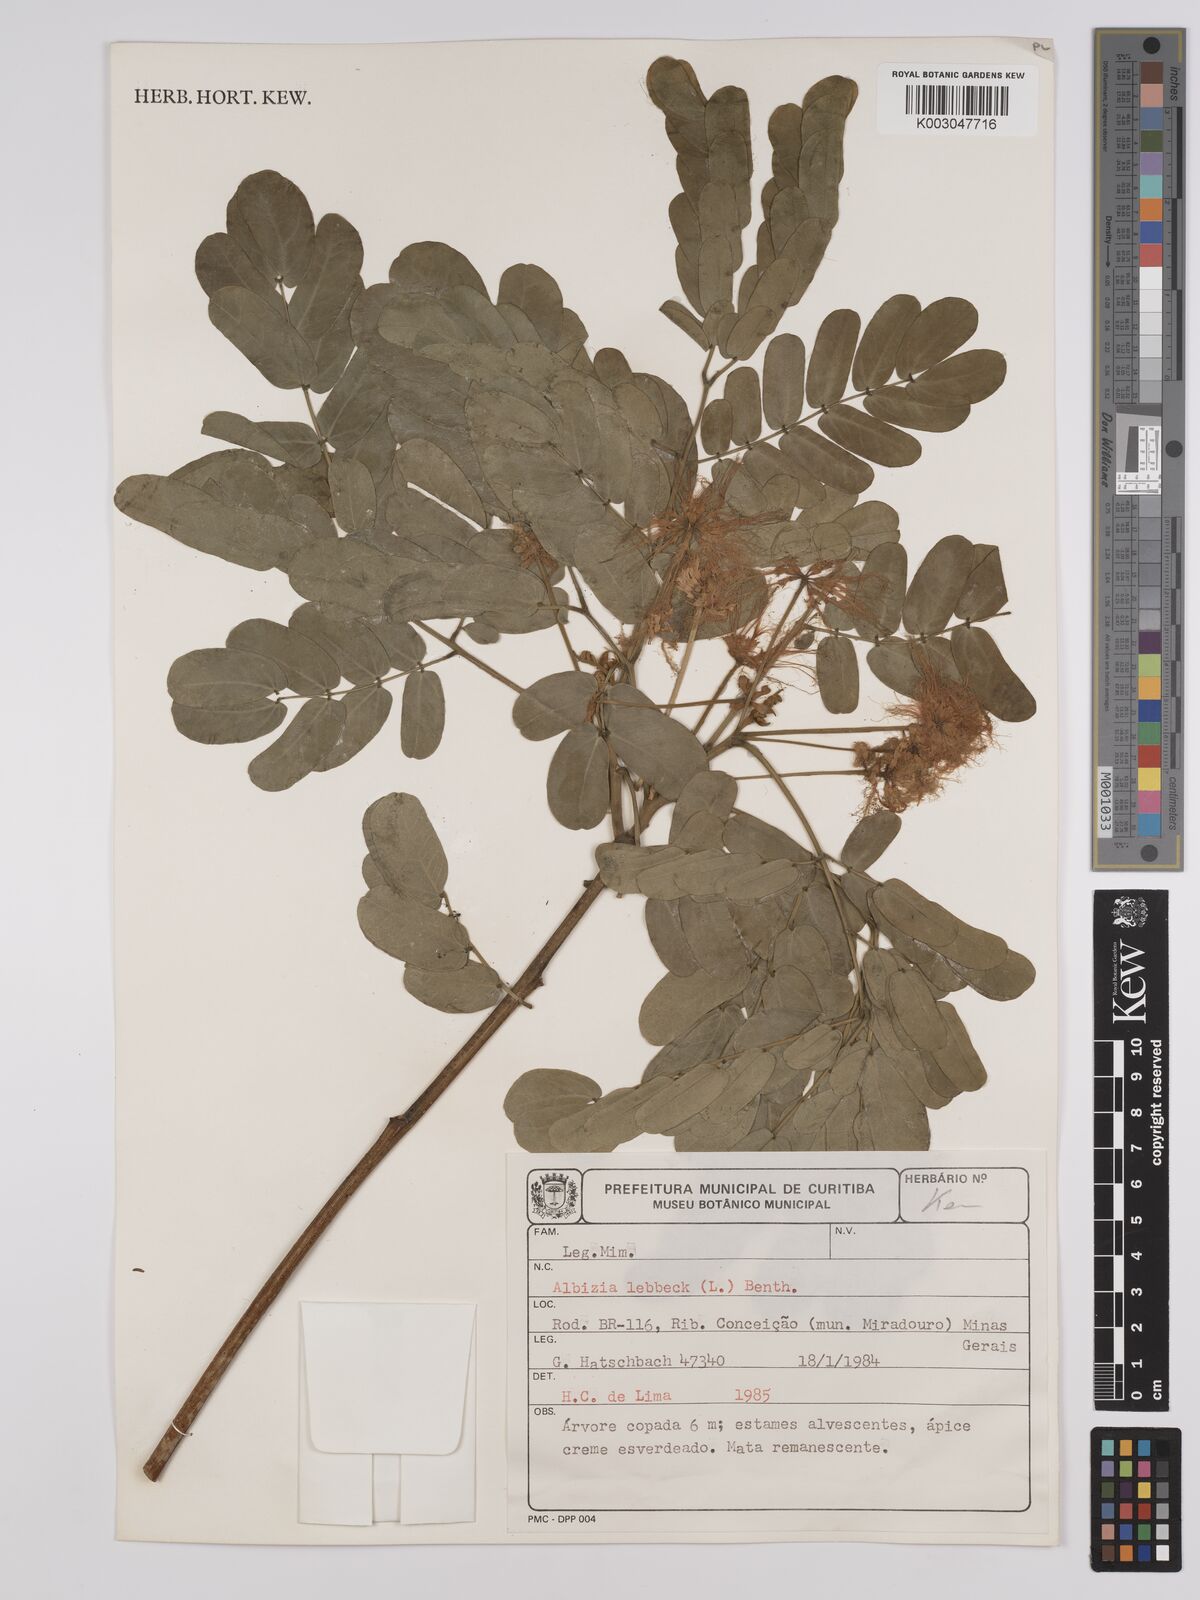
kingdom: Plantae
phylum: Tracheophyta
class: Magnoliopsida
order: Fabales
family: Fabaceae
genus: Albizia
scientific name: Albizia lebbeck
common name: Woman's tongue
